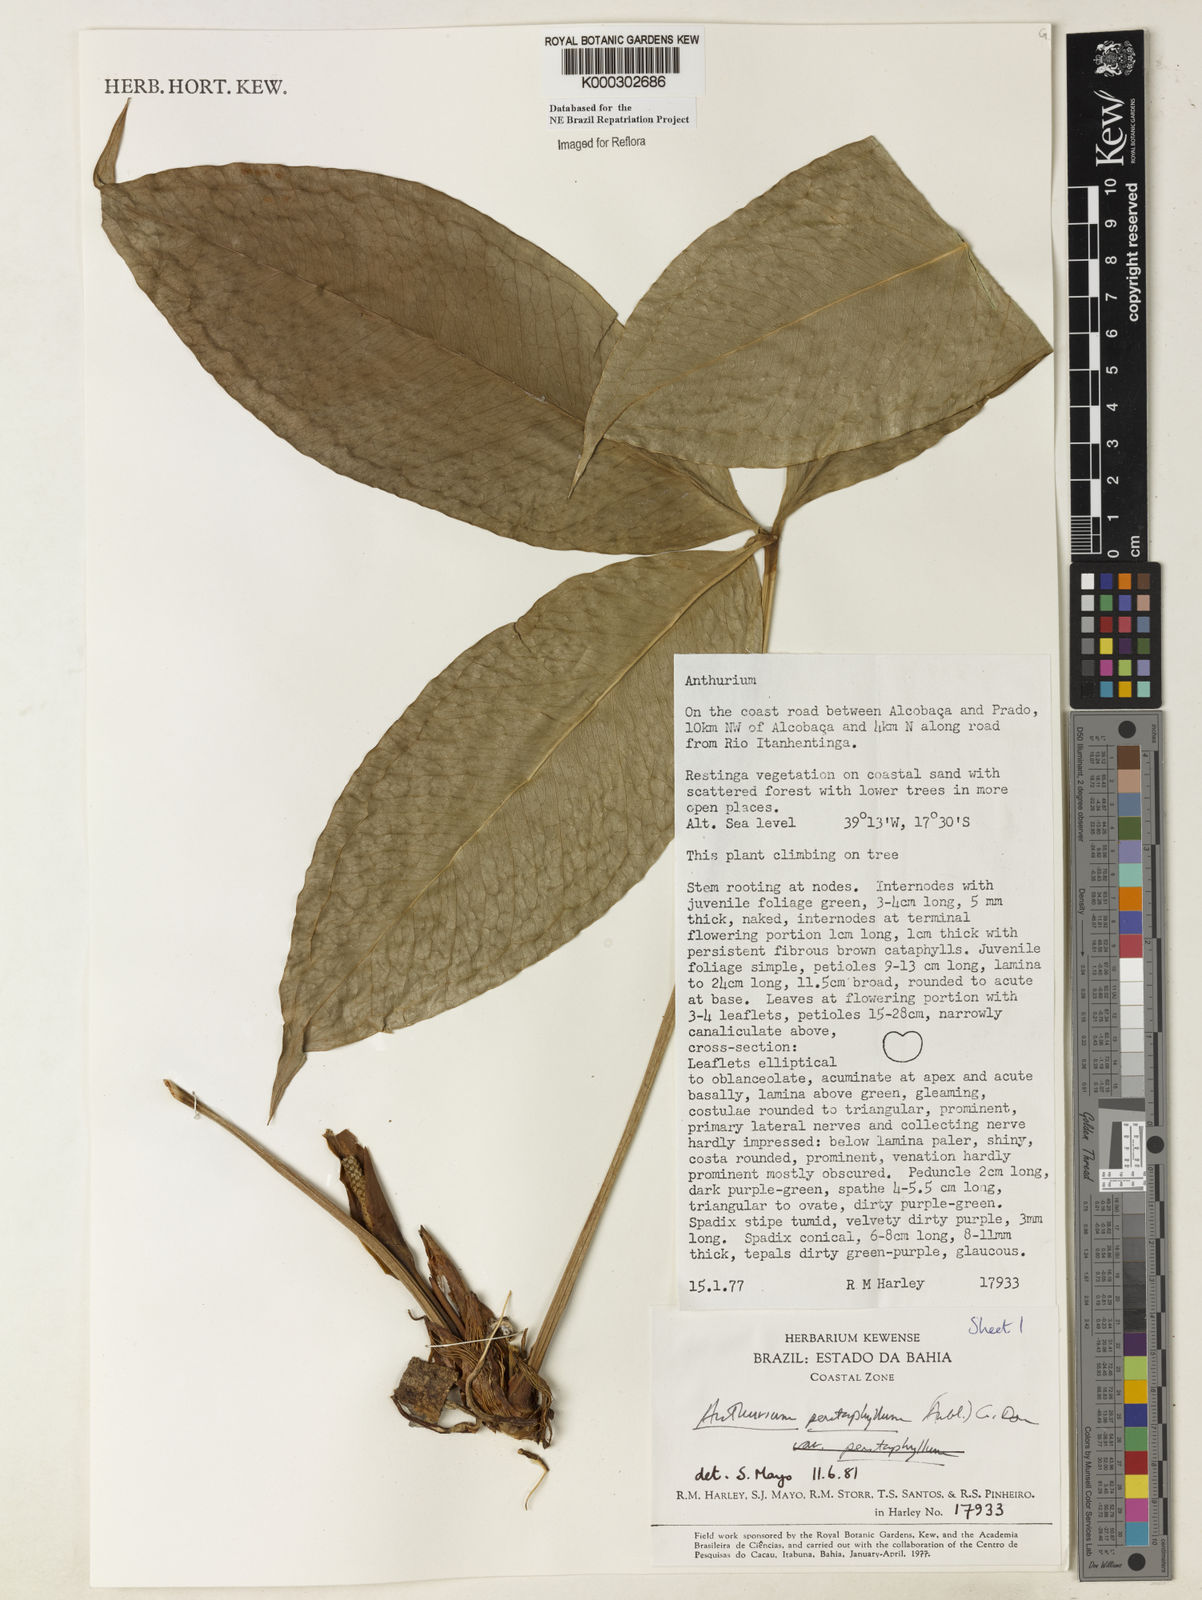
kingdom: Plantae
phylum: Tracheophyta
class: Liliopsida
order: Alismatales
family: Araceae
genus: Anthurium
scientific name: Anthurium pentaphyllum
